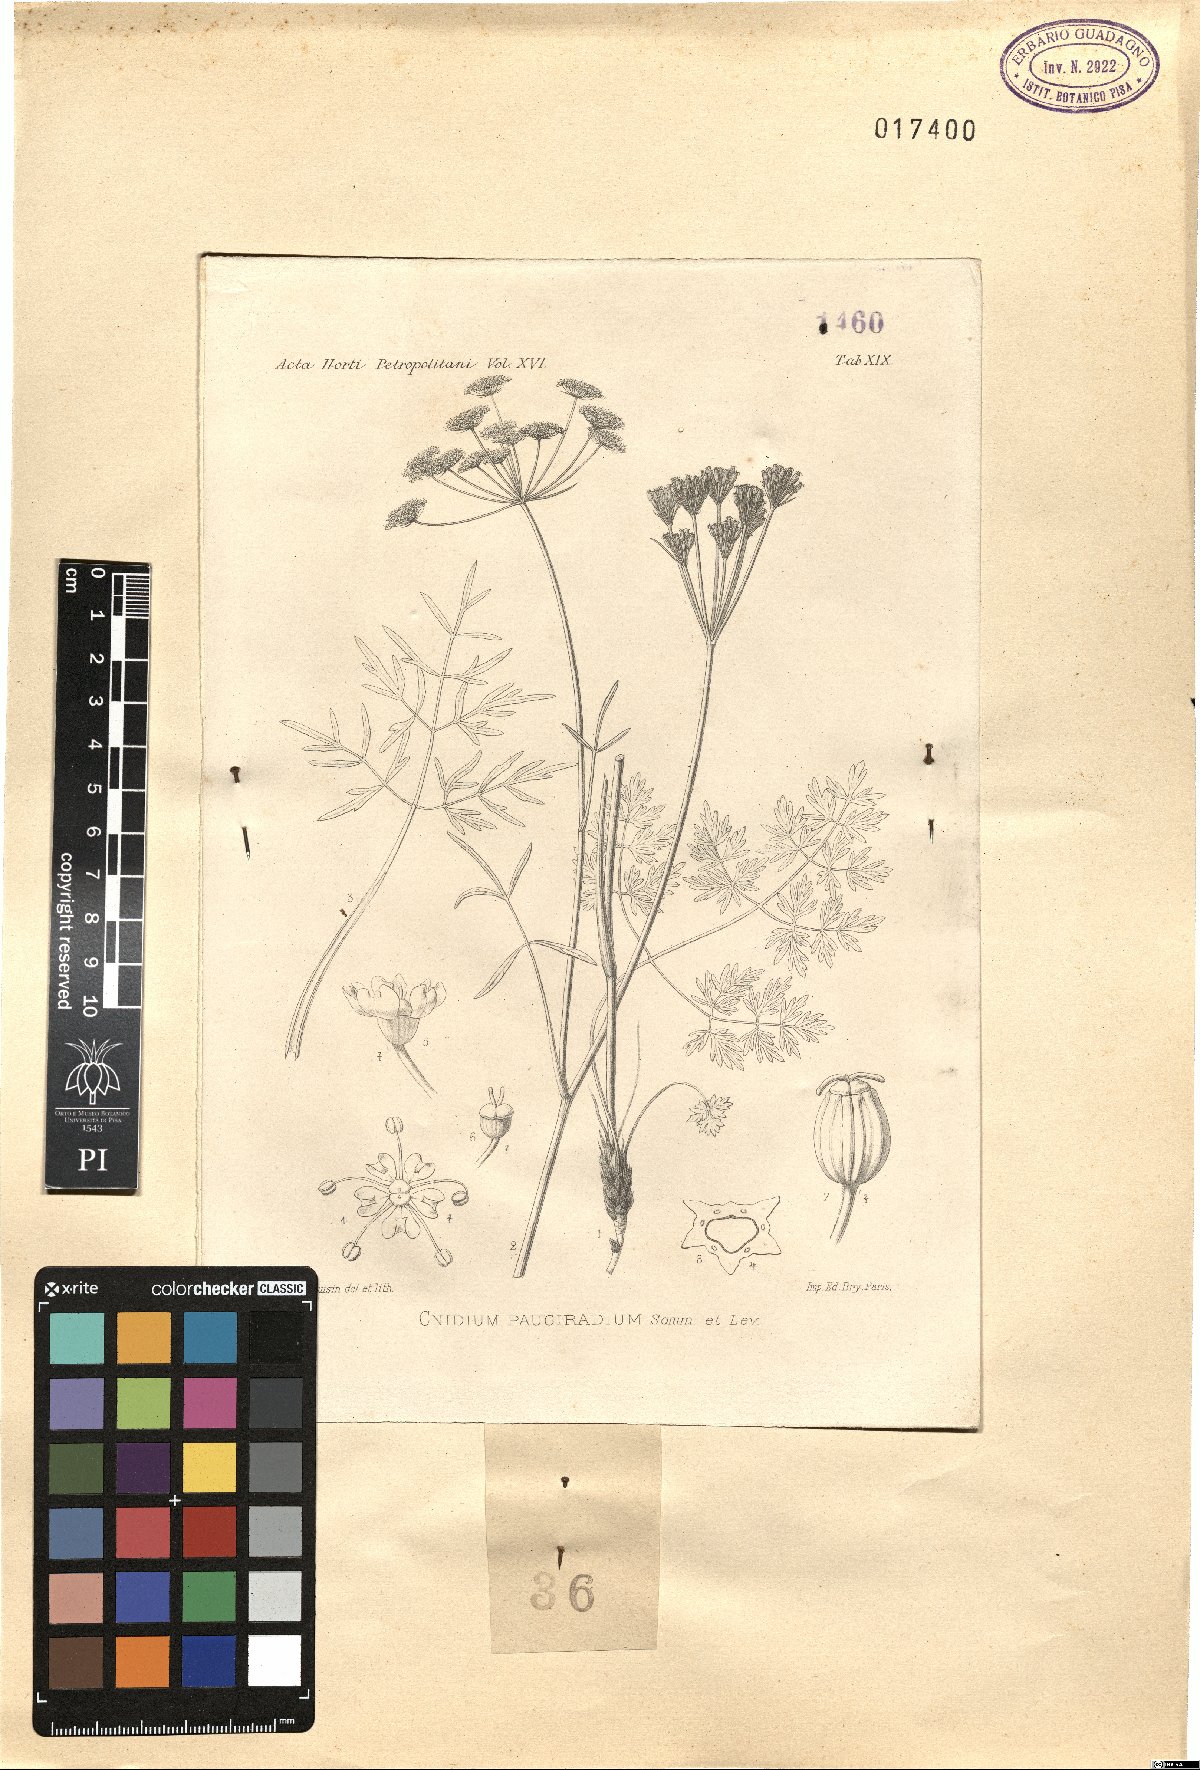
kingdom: Plantae
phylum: Tracheophyta
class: Magnoliopsida
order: Apiales
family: Apiaceae
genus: Selinum
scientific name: Selinum pauciradium
